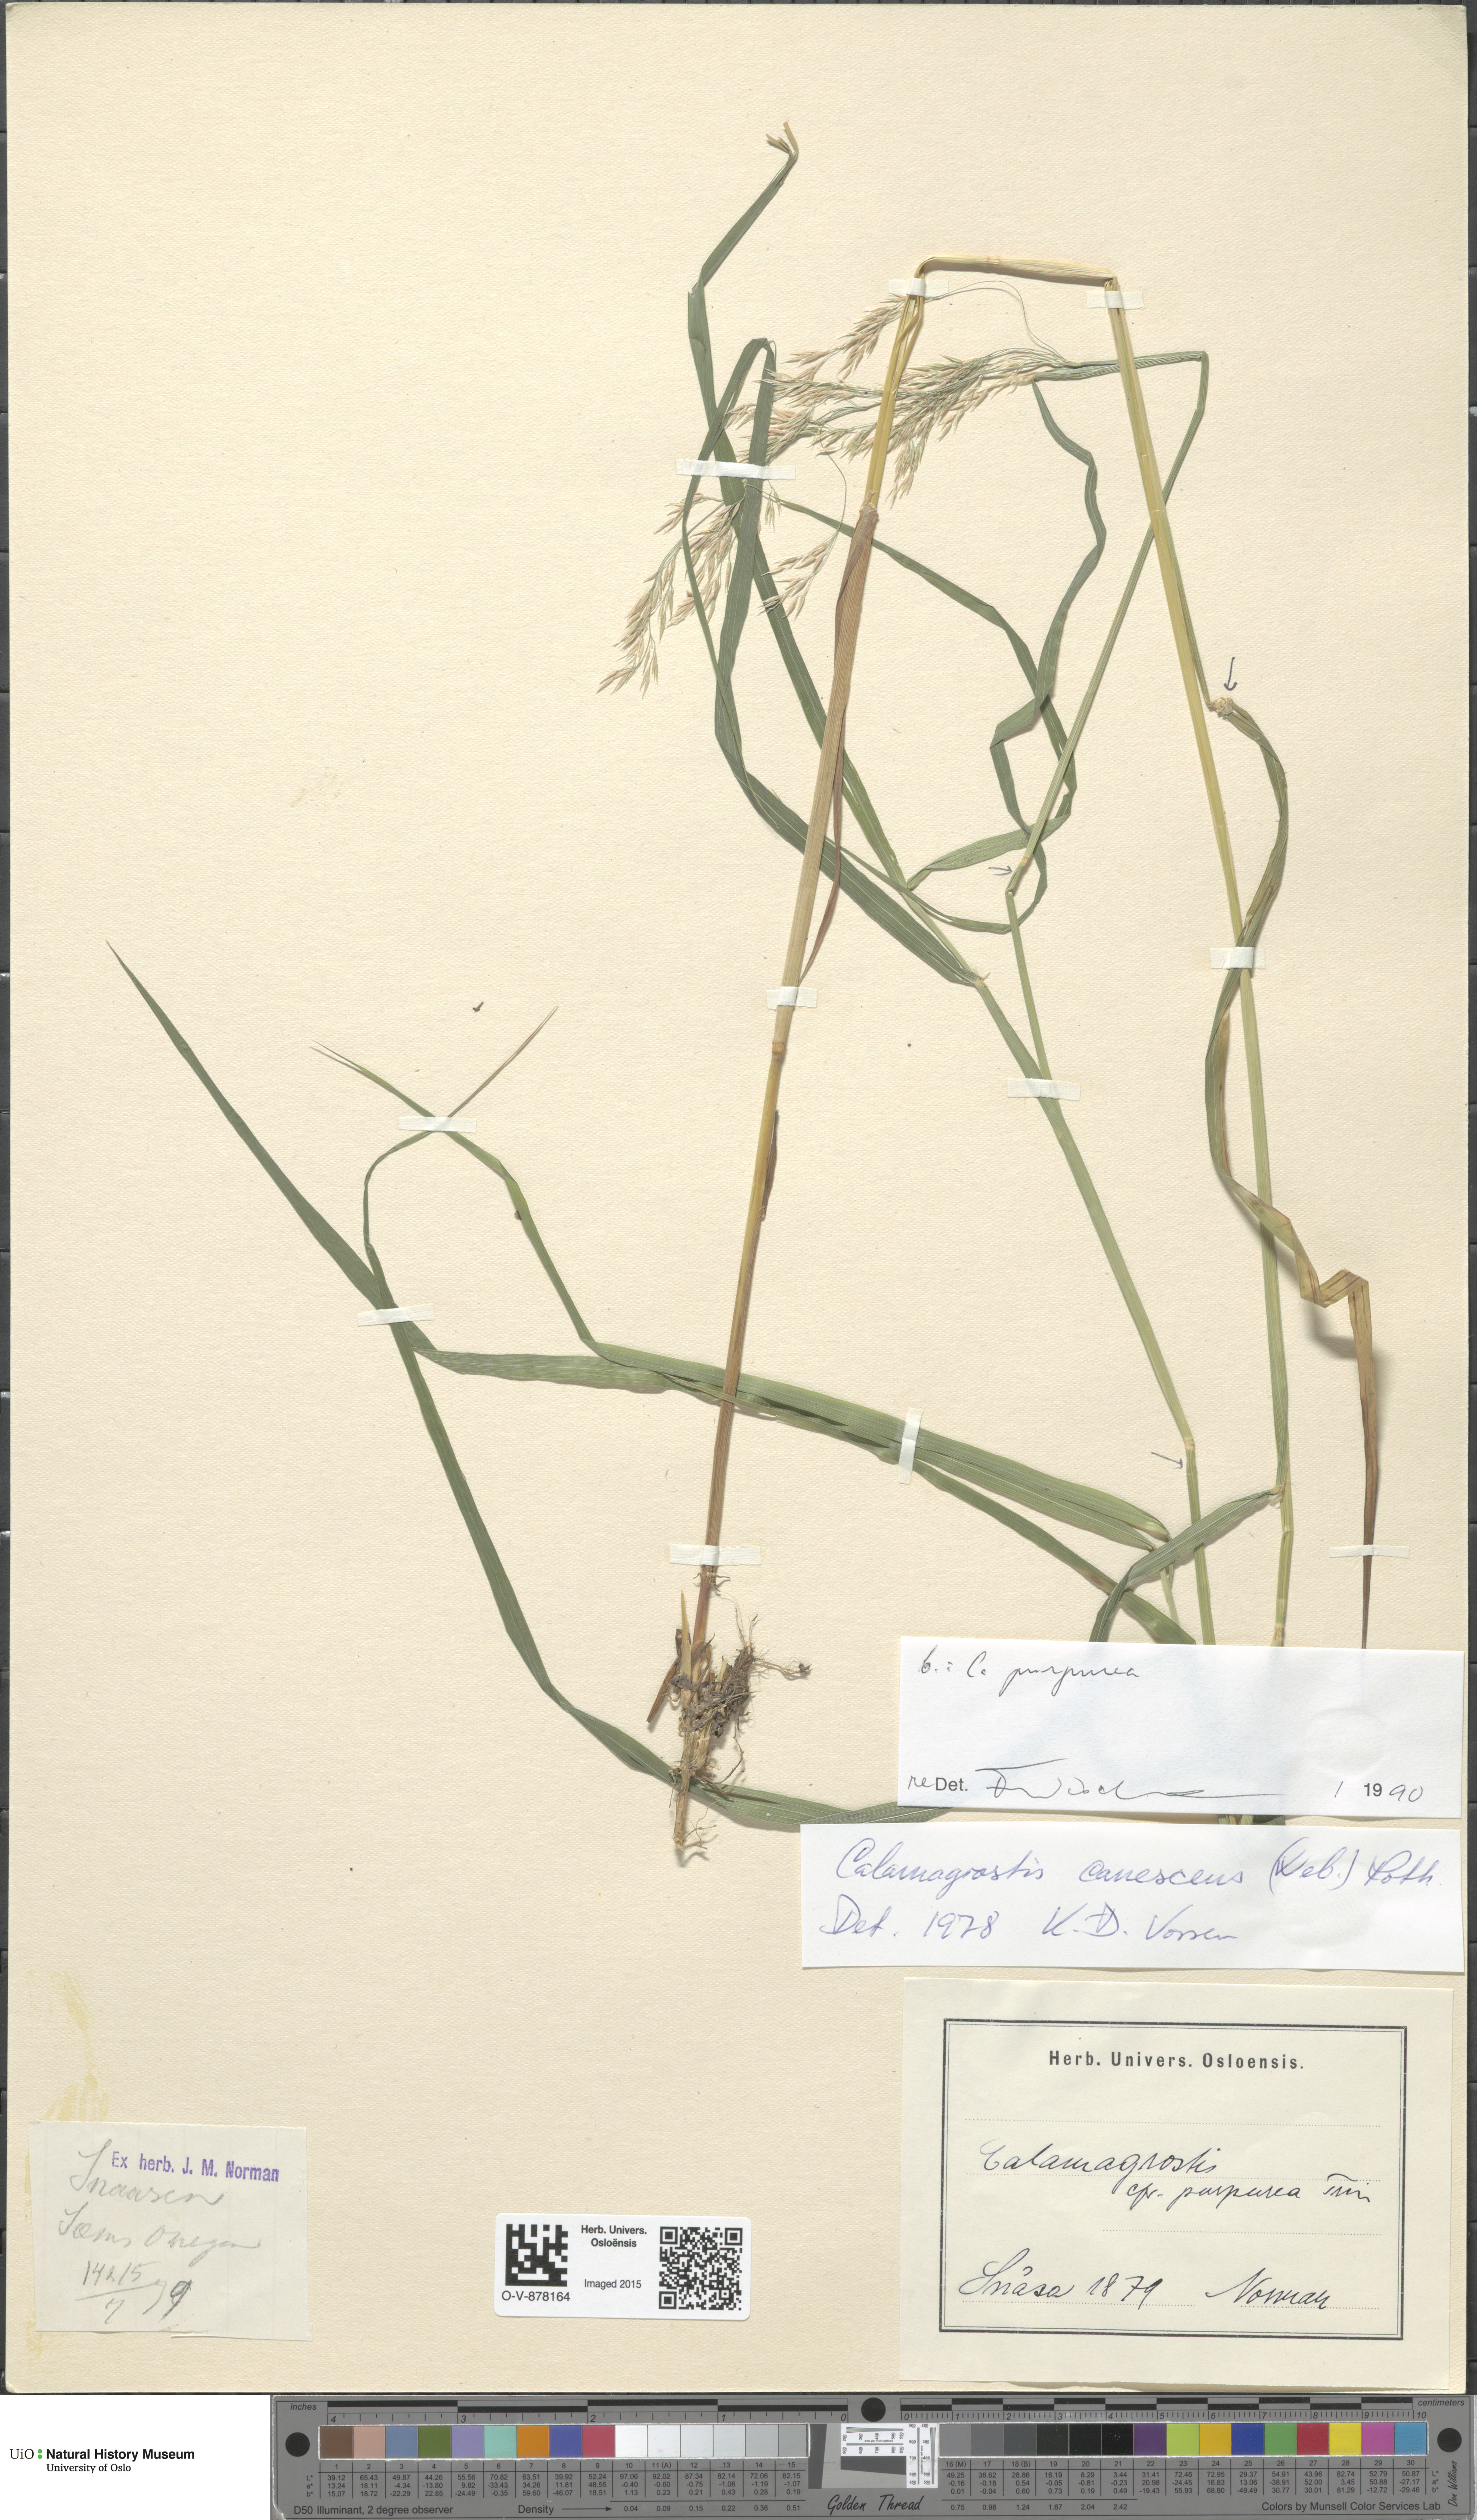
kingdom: Plantae
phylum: Tracheophyta
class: Liliopsida
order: Poales
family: Poaceae
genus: Calamagrostis
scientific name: Calamagrostis purpurea
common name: Scandinavian small-reed
